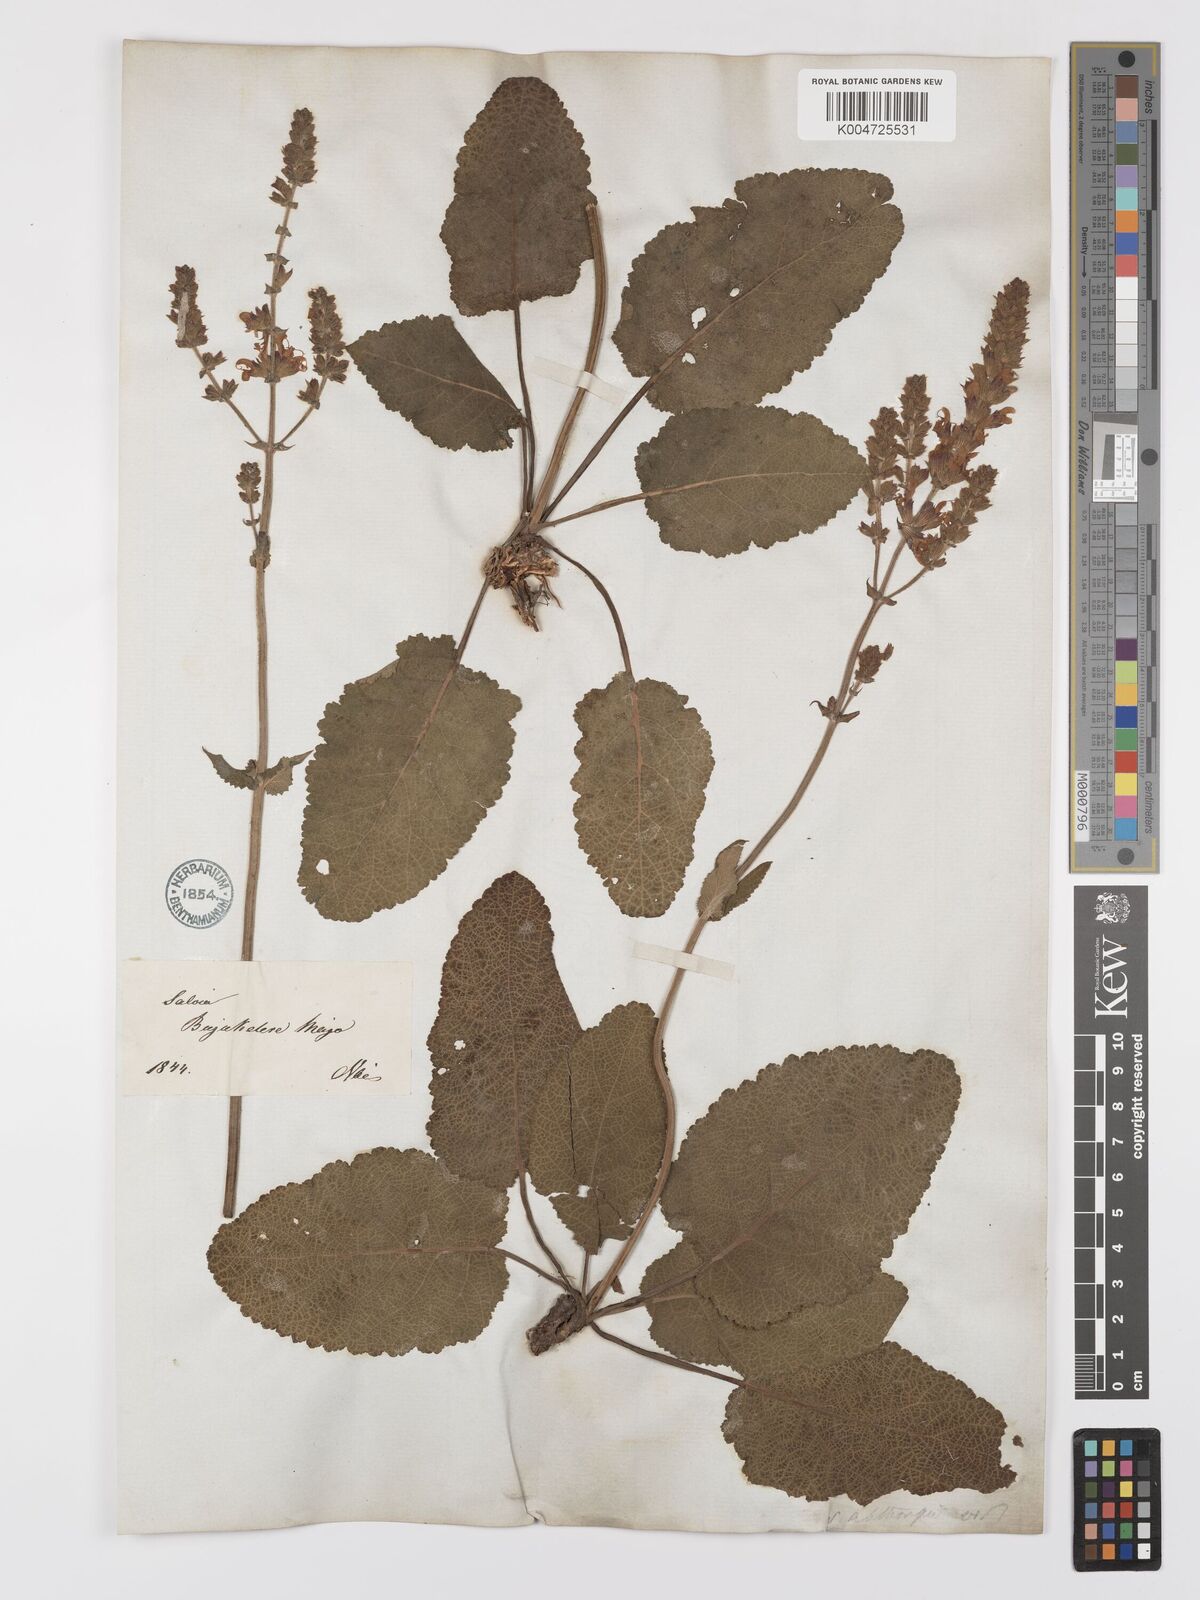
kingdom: Plantae
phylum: Tracheophyta
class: Magnoliopsida
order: Lamiales
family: Lamiaceae
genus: Salvia
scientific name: Salvia
